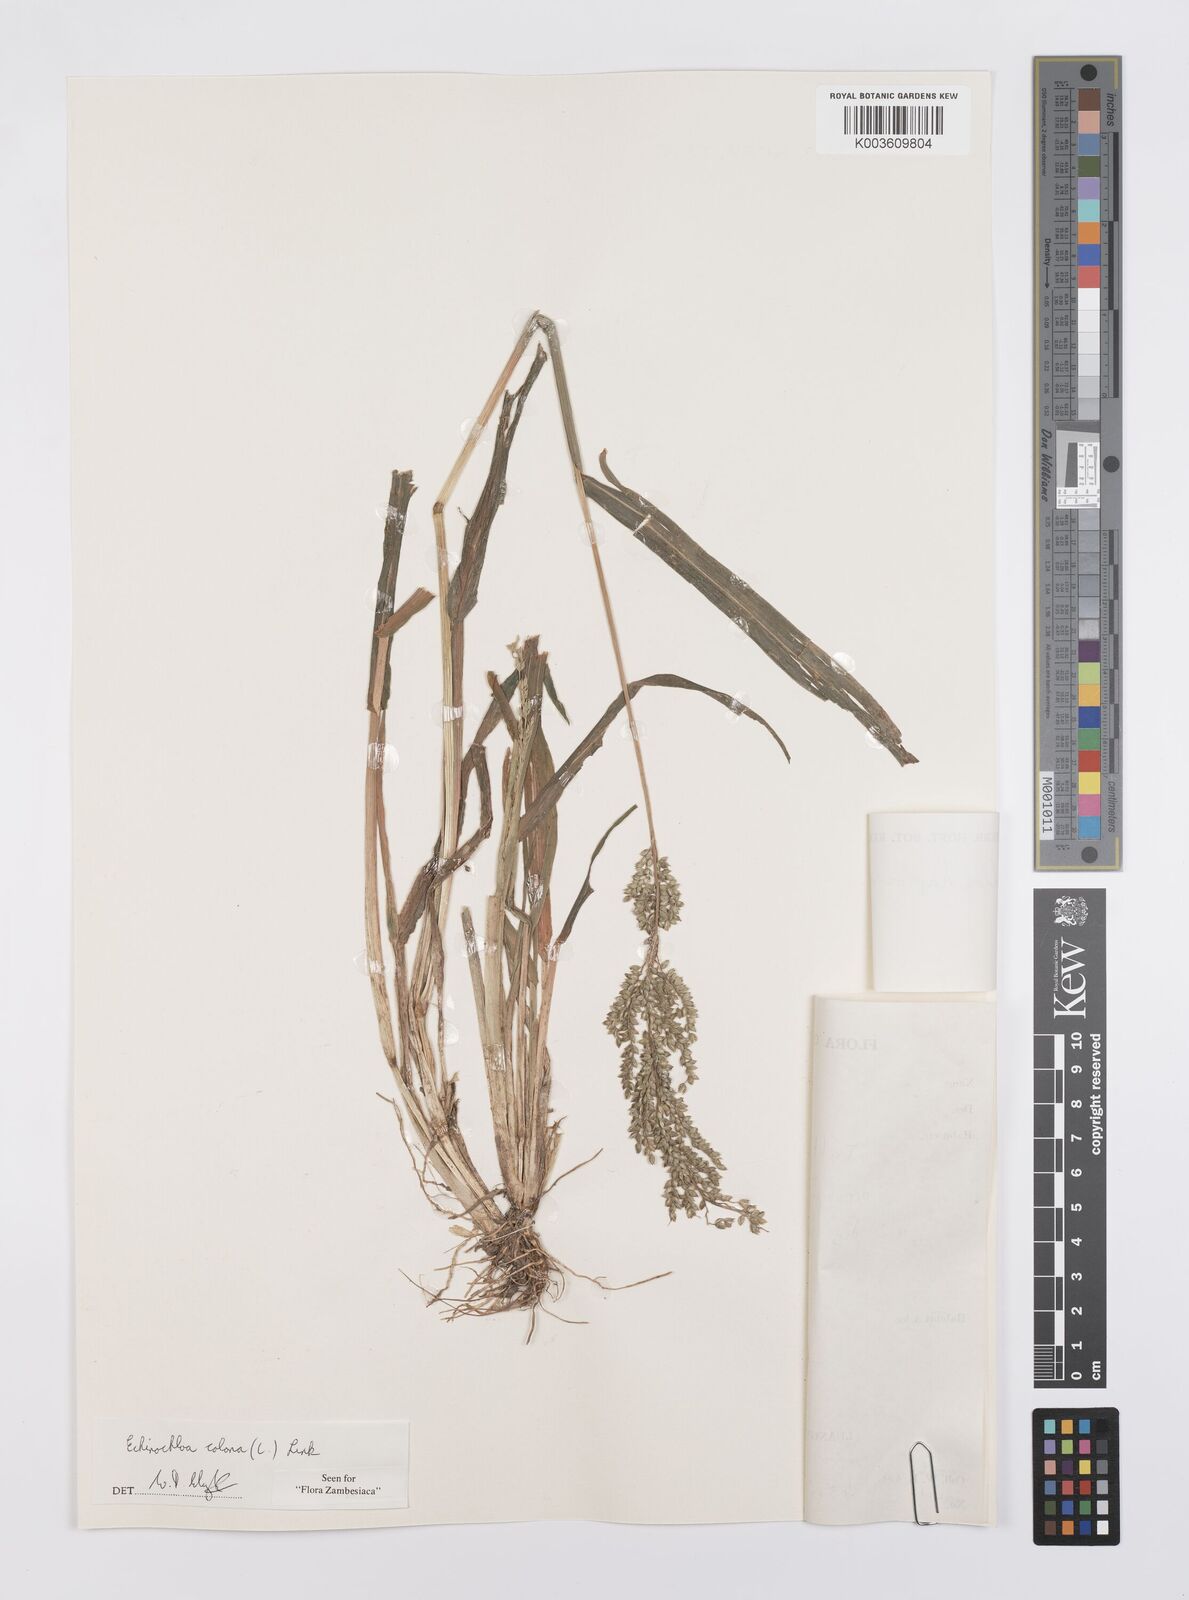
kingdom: Plantae
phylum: Tracheophyta
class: Liliopsida
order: Poales
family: Poaceae
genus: Echinochloa
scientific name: Echinochloa colonum
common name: Jungle rice
